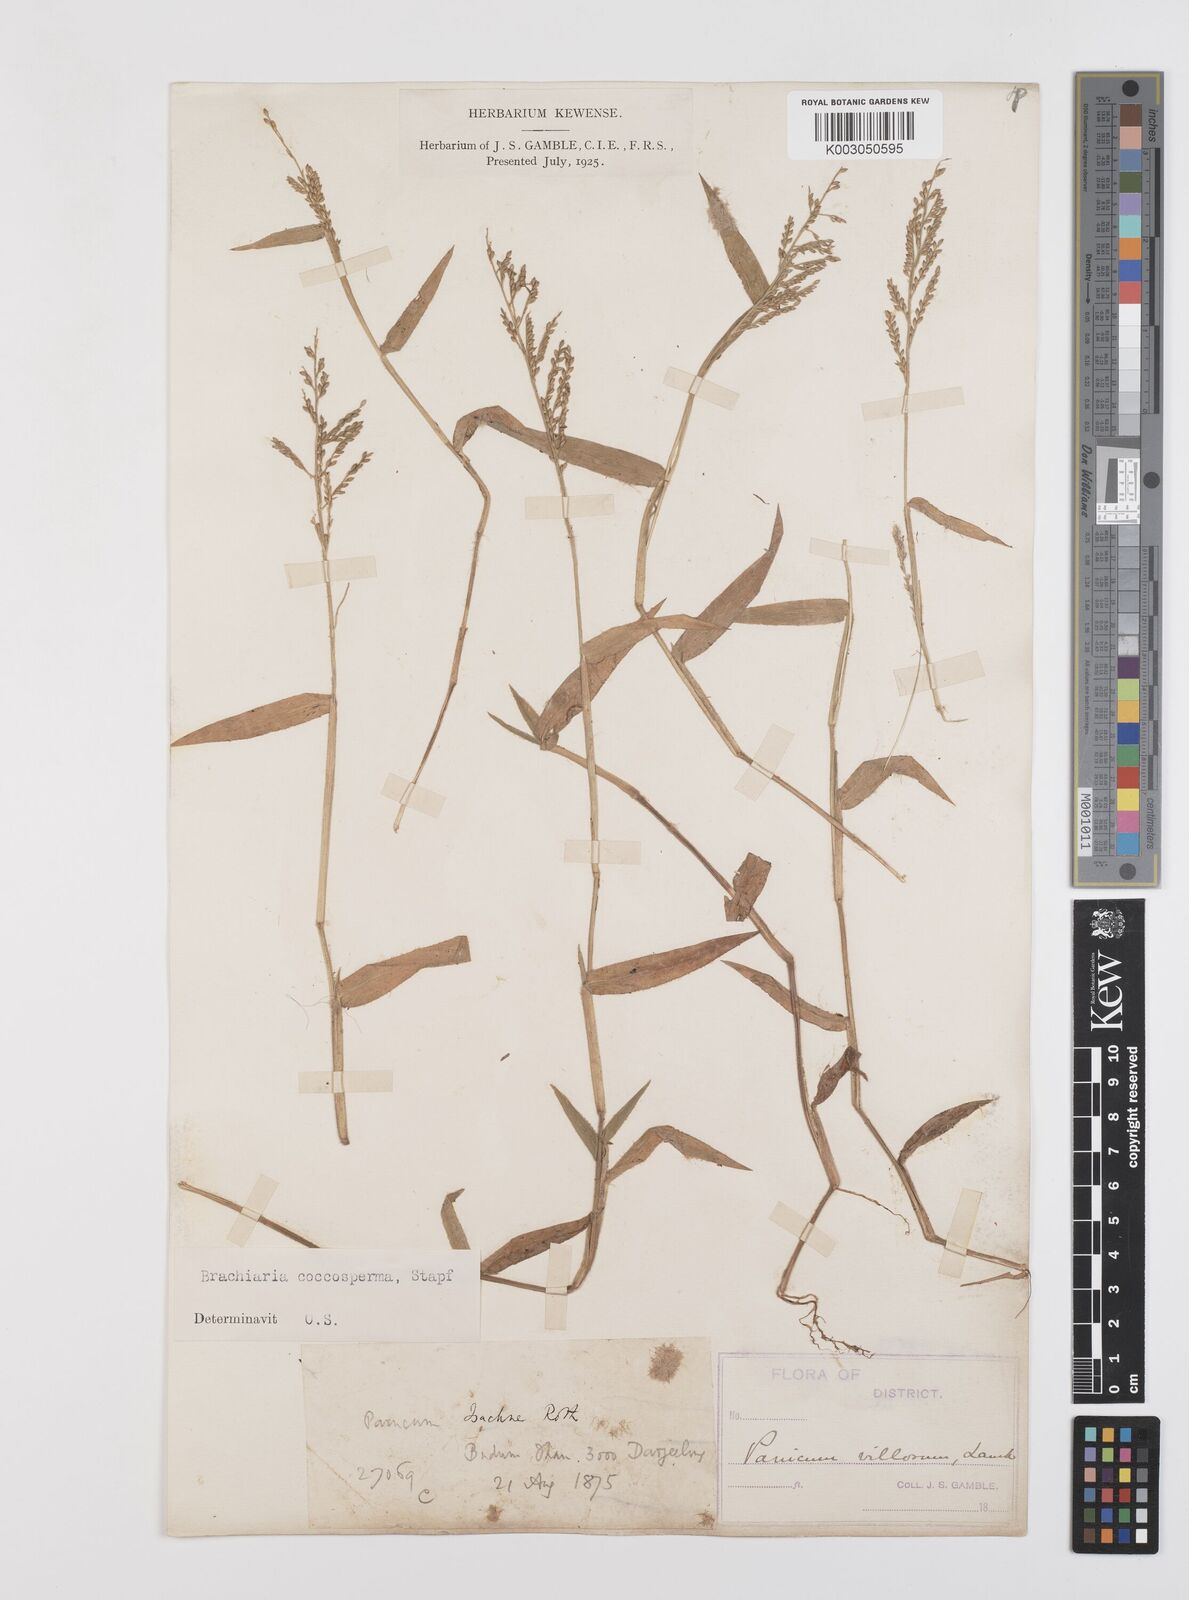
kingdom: Plantae
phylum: Tracheophyta
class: Liliopsida
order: Poales
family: Poaceae
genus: Urochloa
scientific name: Urochloa villosa
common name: Hairy signalgrass
